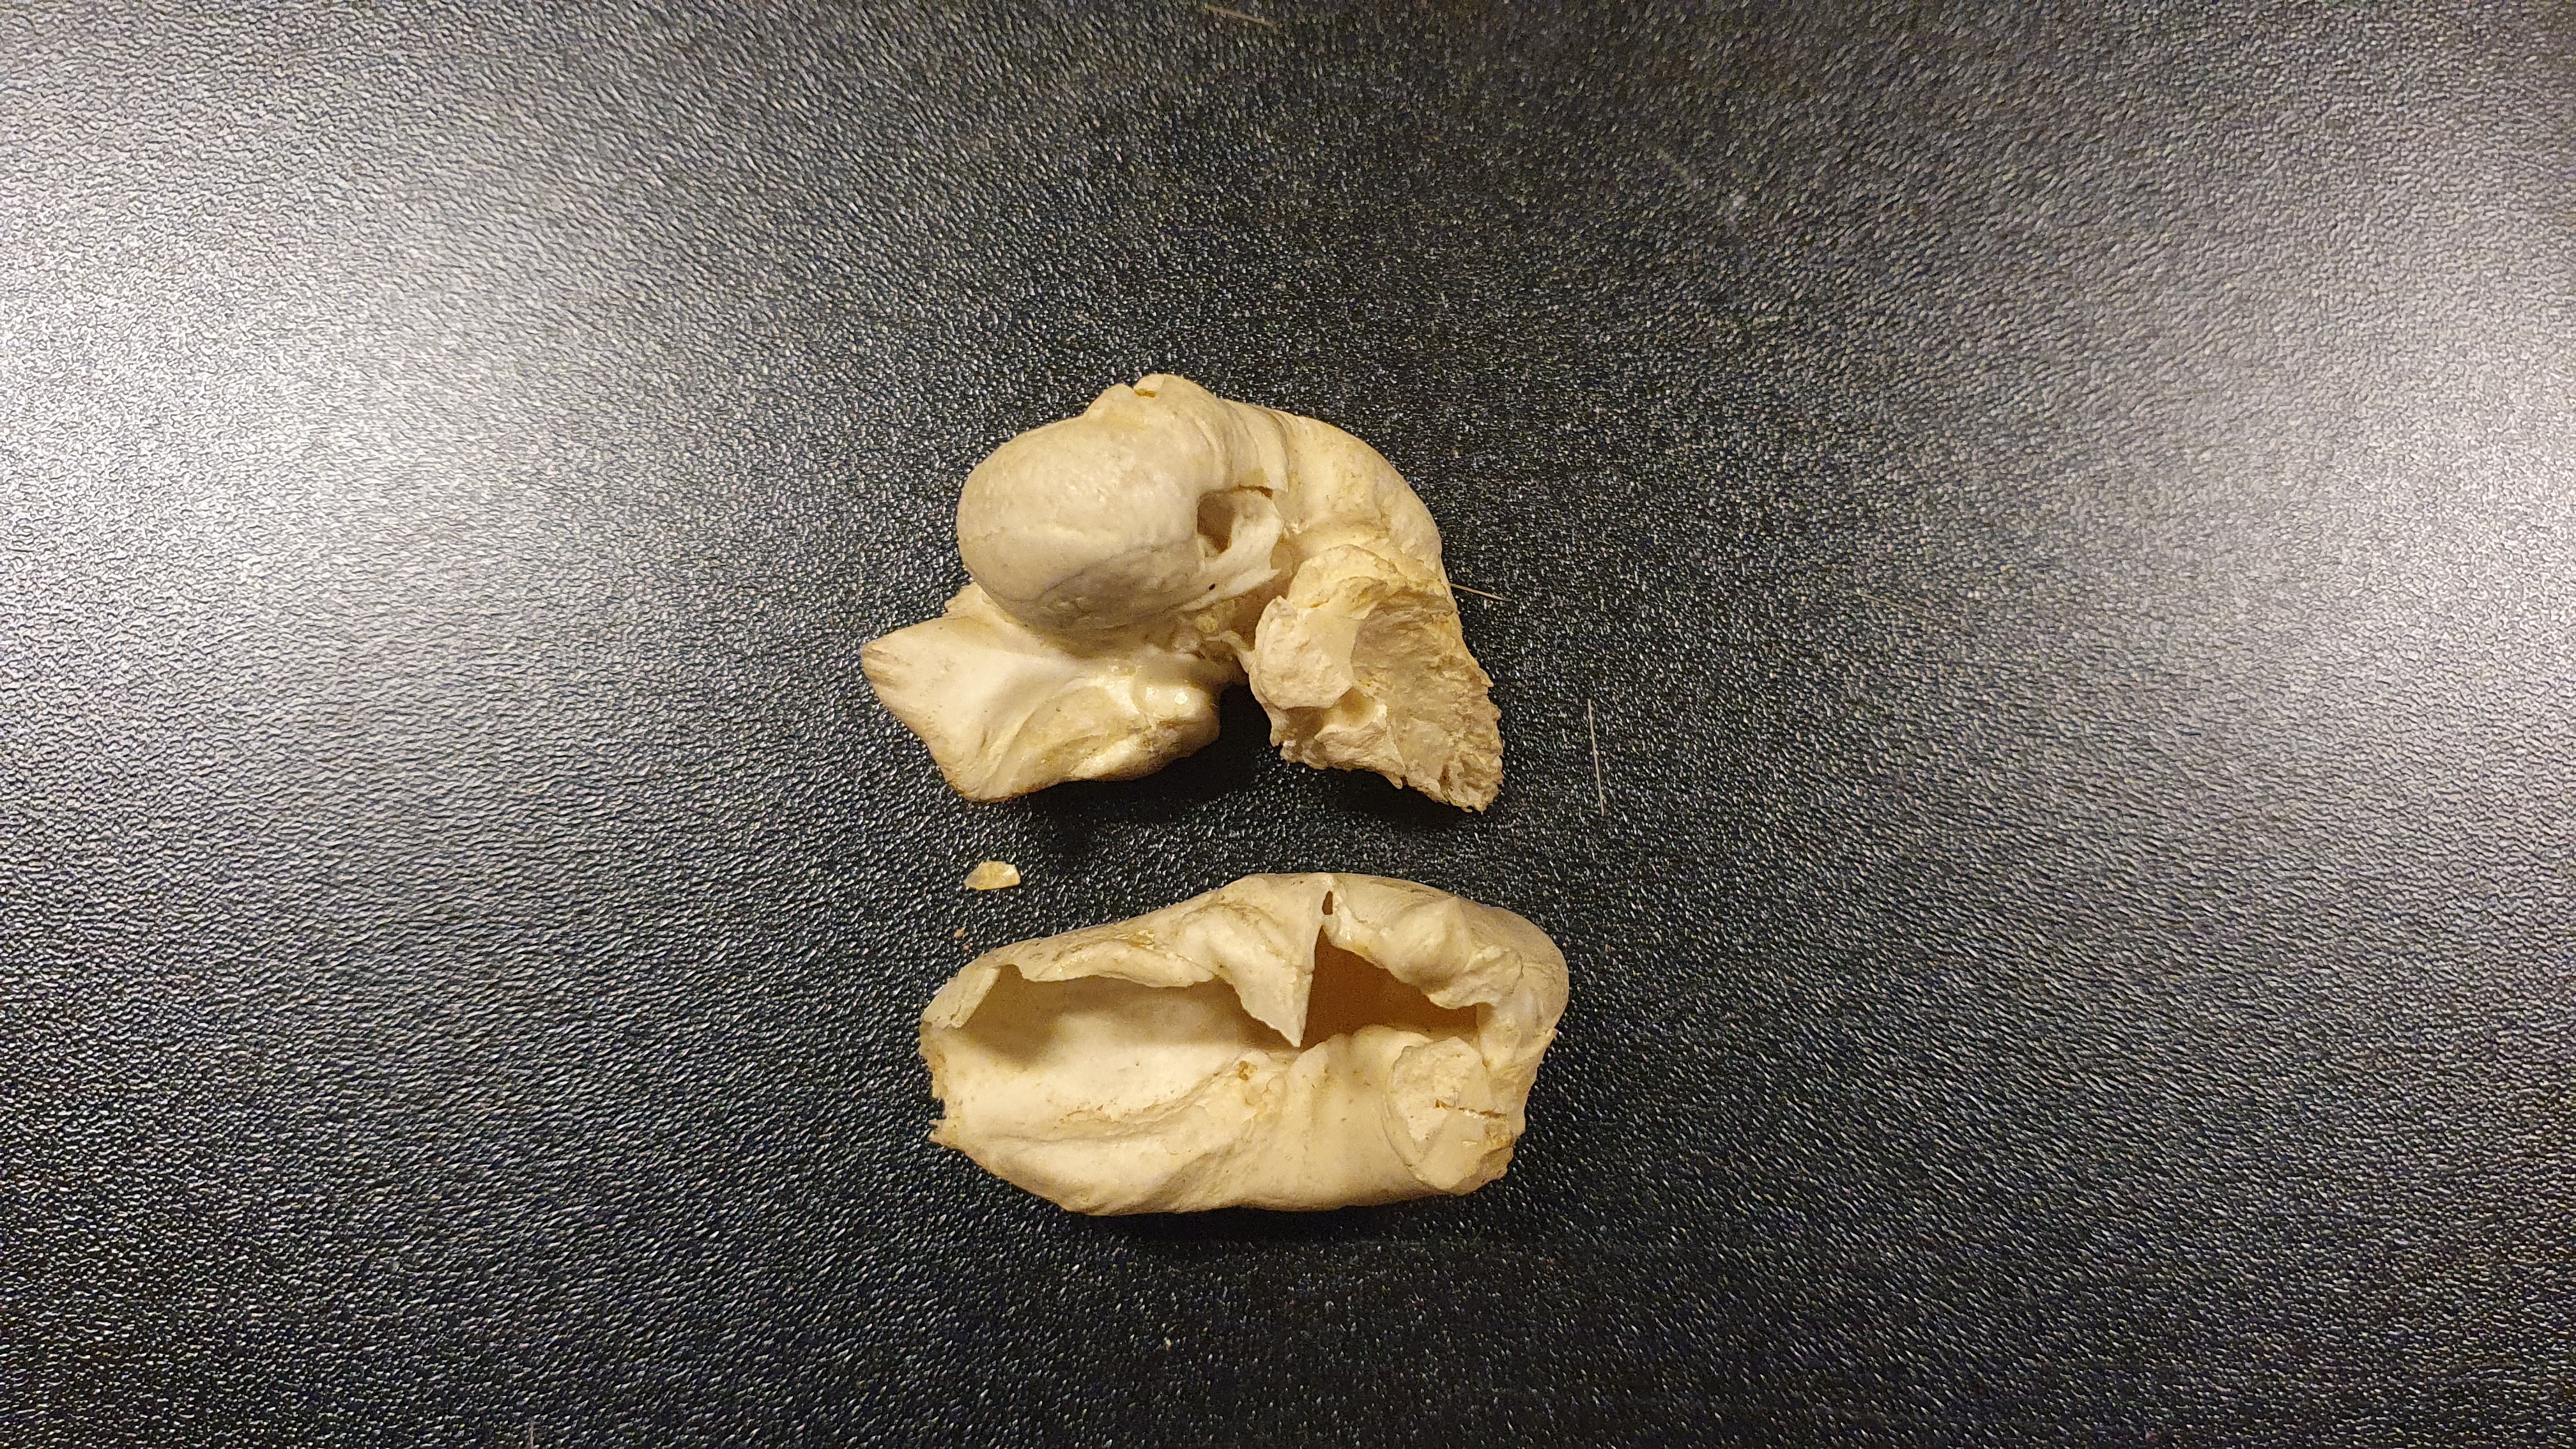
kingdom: Animalia
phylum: Chordata
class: Mammalia
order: Cetacea
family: Delphinidae
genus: Globicephala
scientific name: Globicephala melas
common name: Long-finned pilot whale
